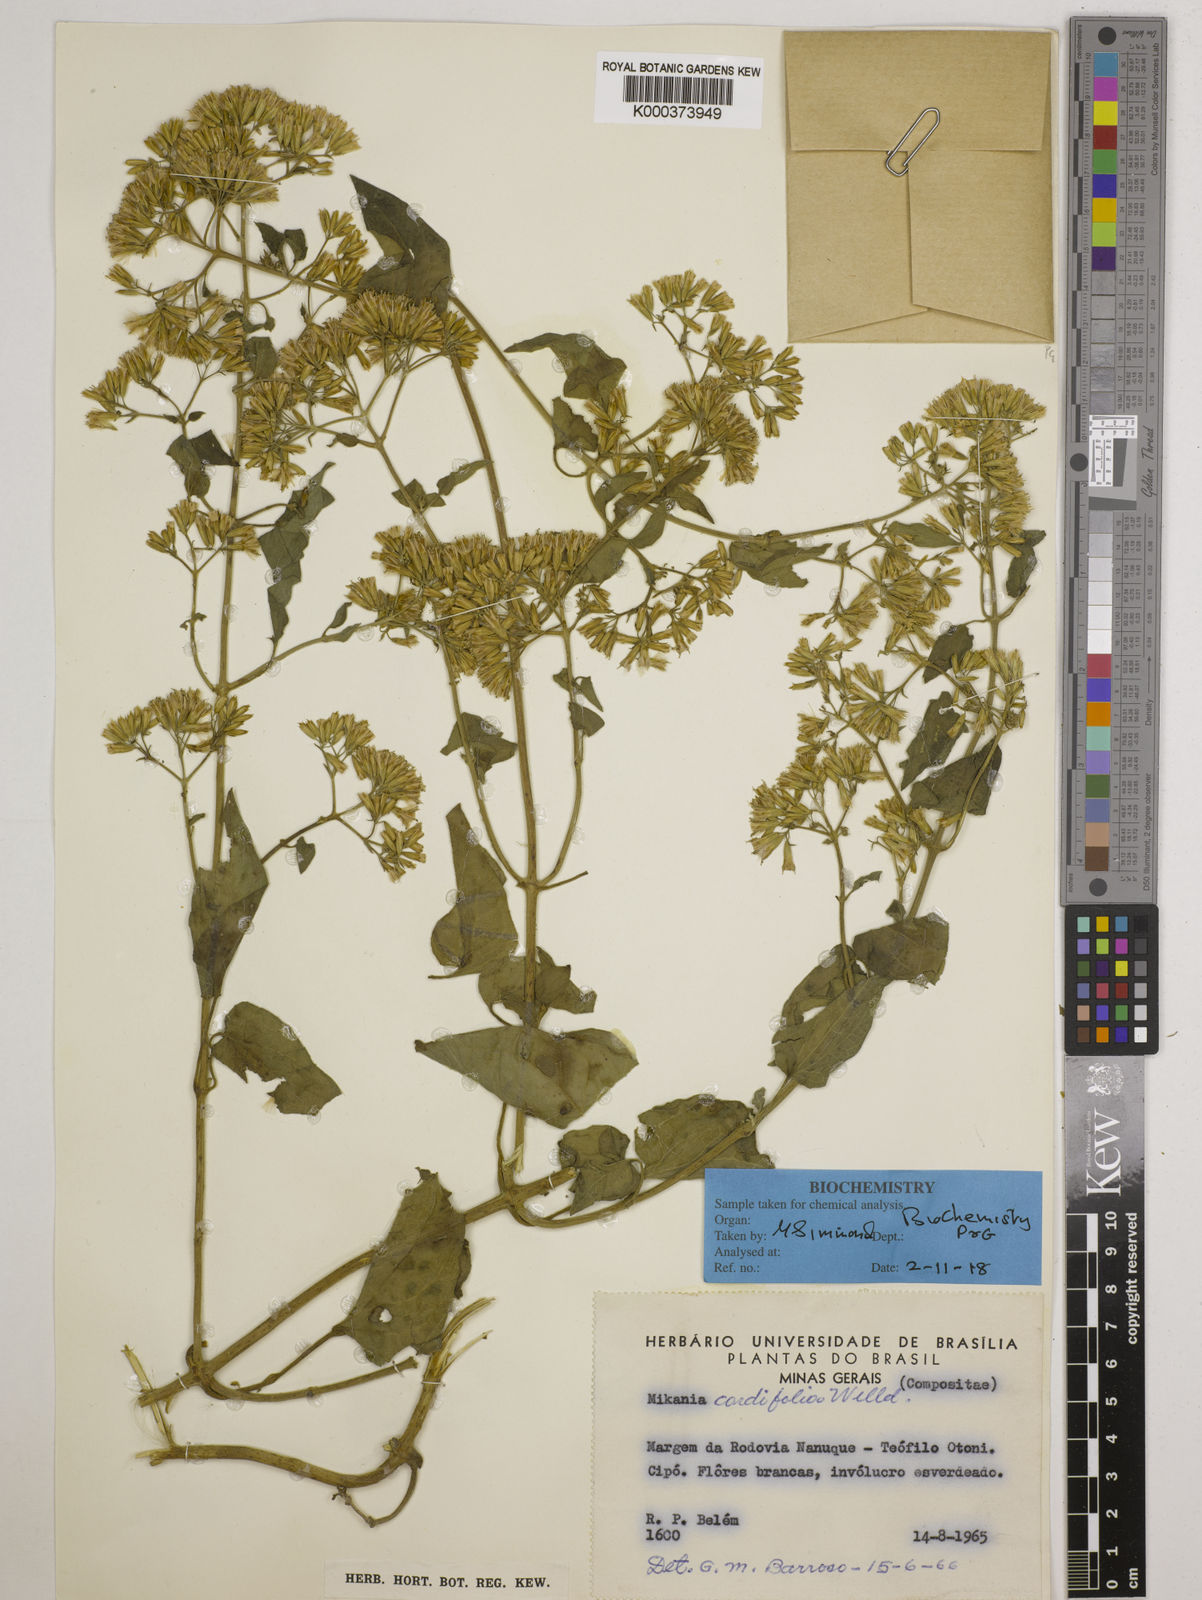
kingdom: Plantae
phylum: Tracheophyta
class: Magnoliopsida
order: Asterales
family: Asteraceae
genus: Mikania
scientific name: Mikania cordifolia
